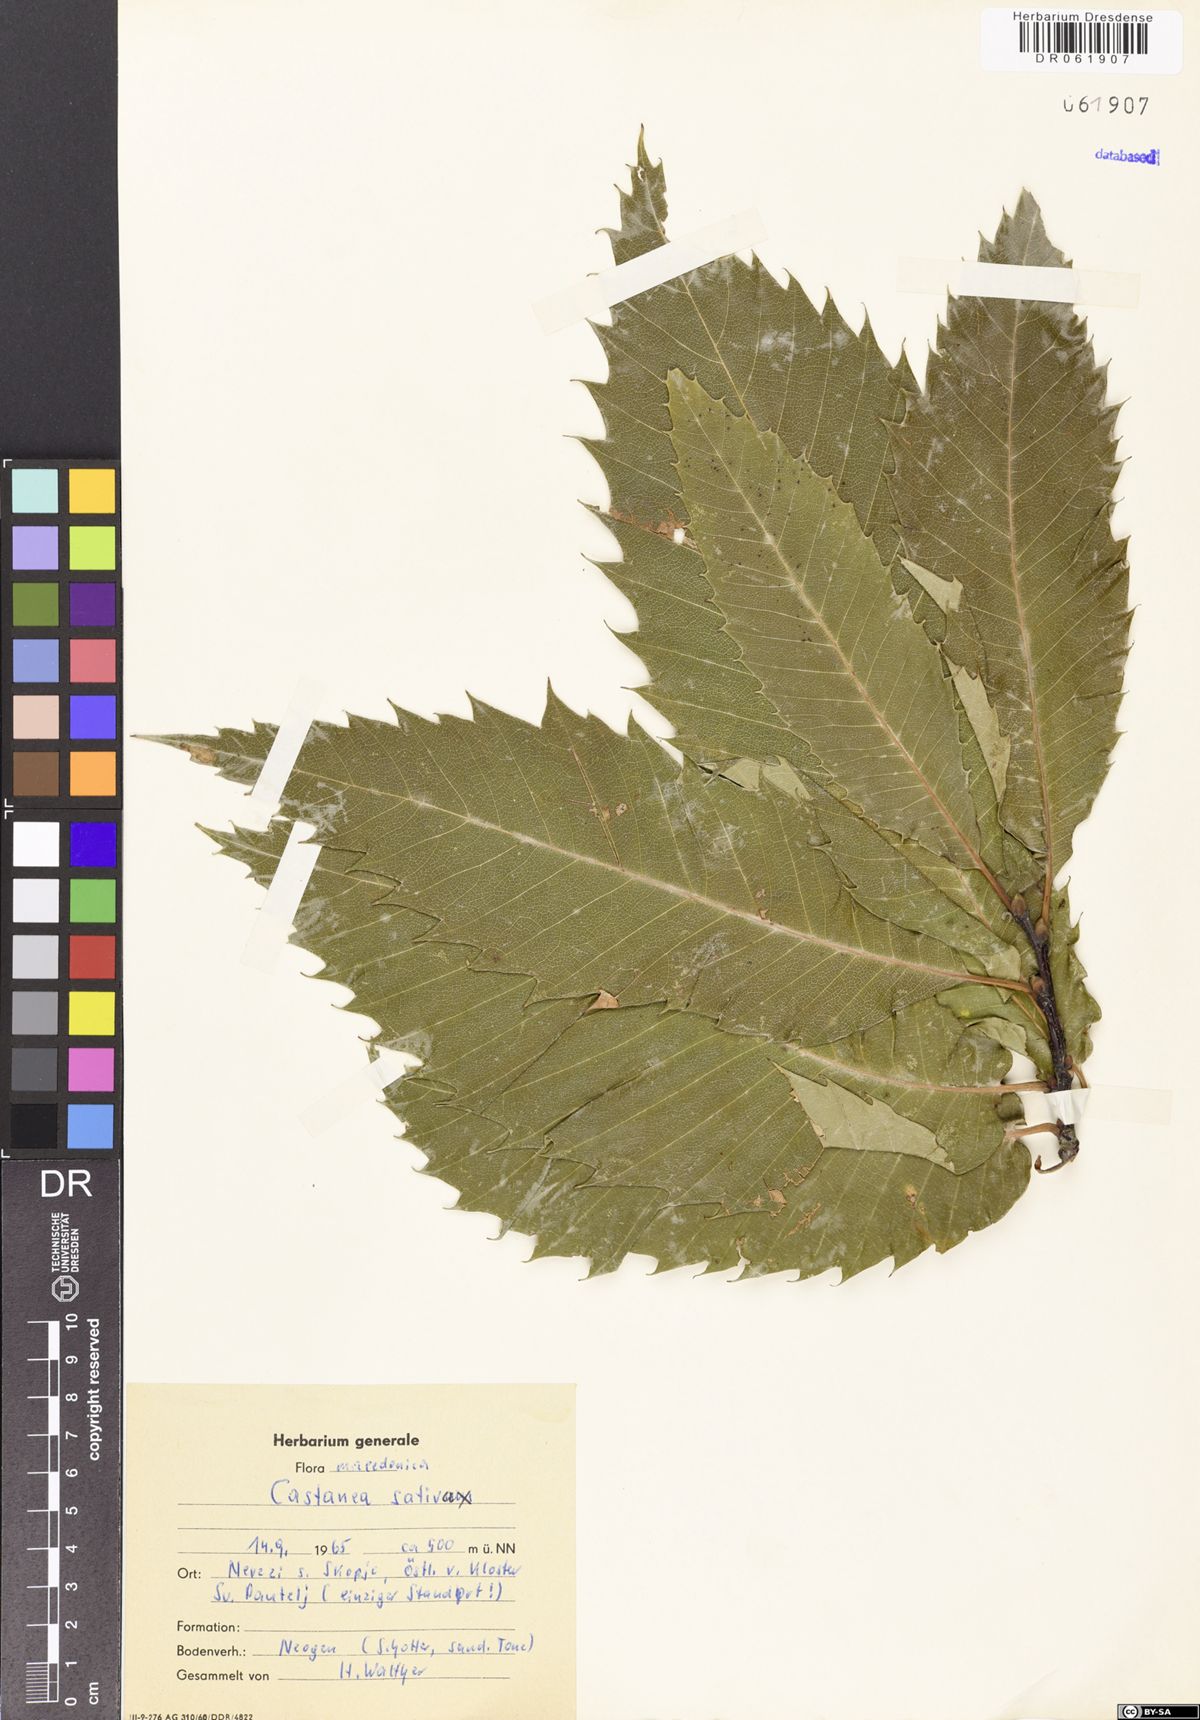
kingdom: Plantae
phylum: Tracheophyta
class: Magnoliopsida
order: Fagales
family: Fagaceae
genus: Castanea
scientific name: Castanea sativa
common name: Sweet chestnut
